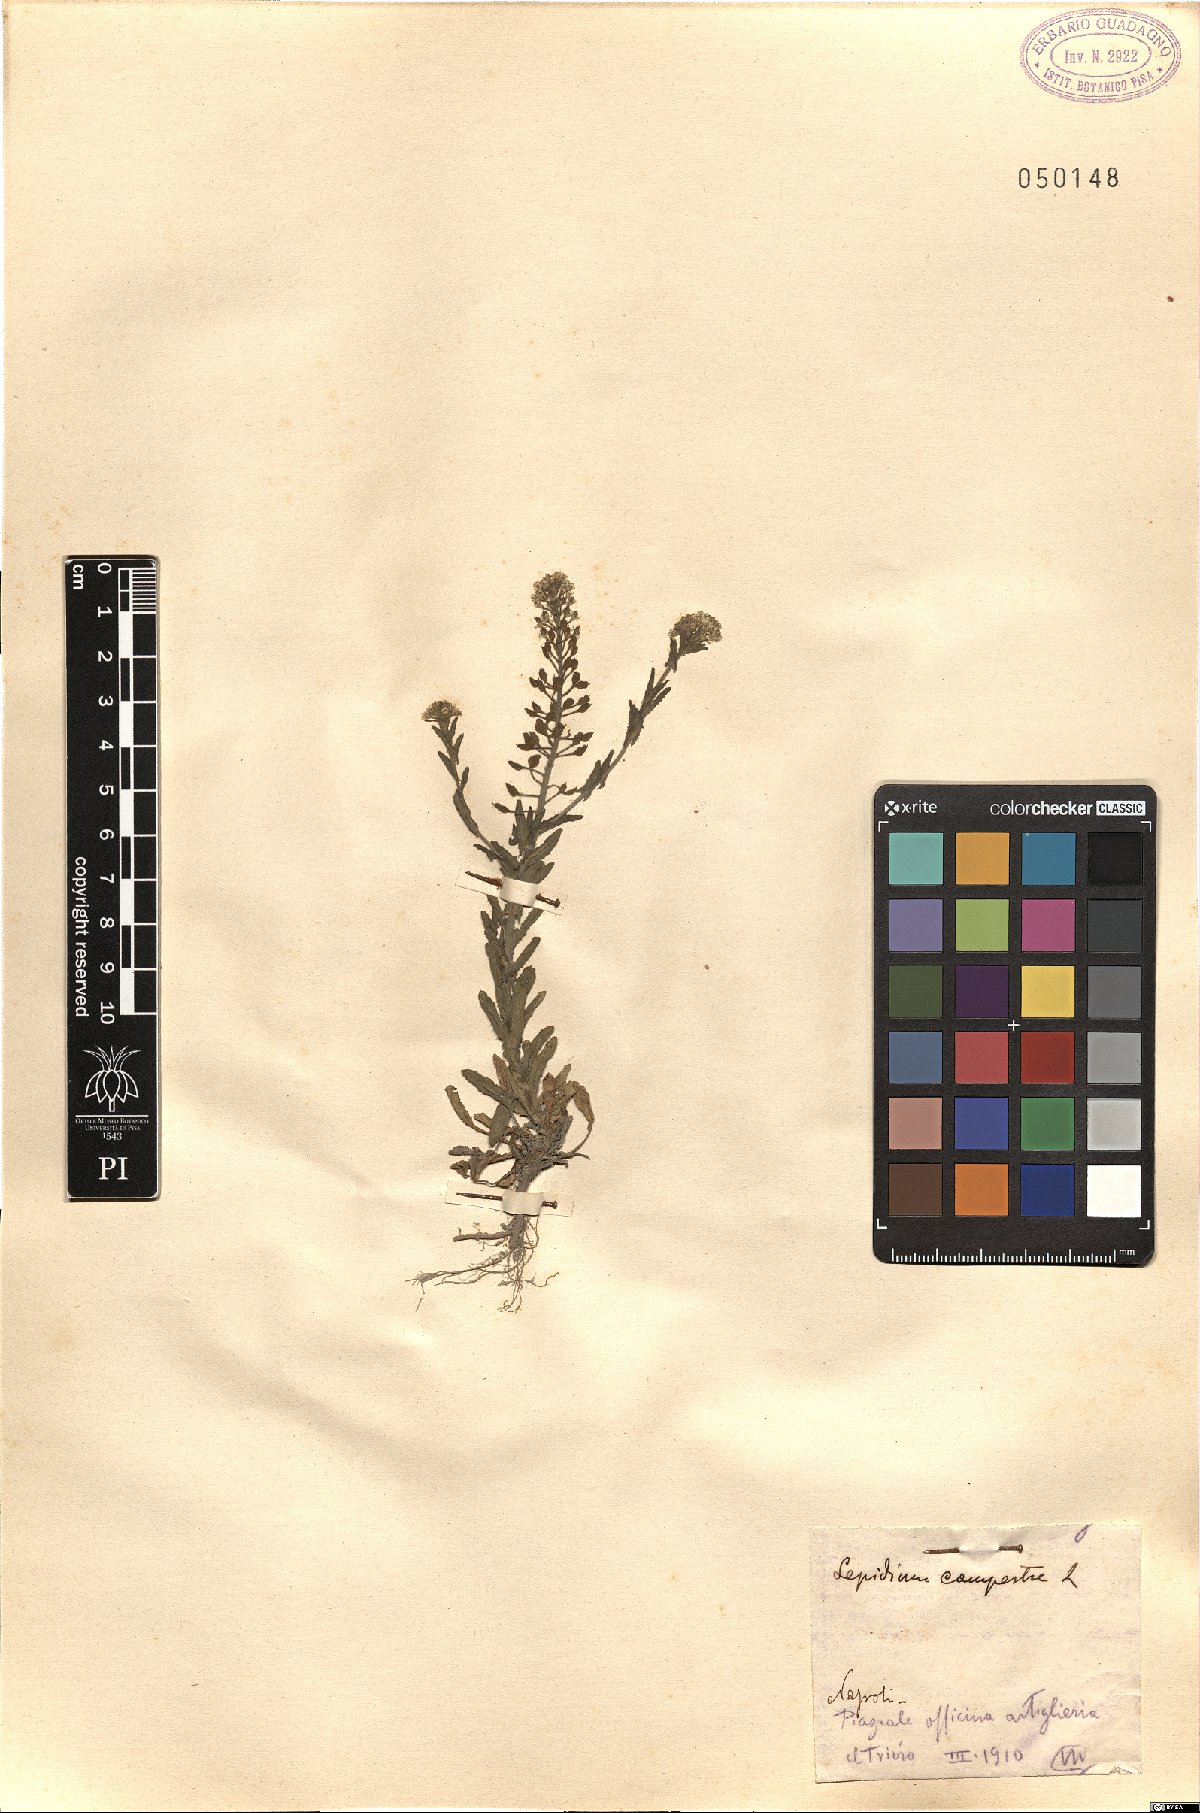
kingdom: Plantae
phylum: Tracheophyta
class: Magnoliopsida
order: Brassicales
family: Brassicaceae
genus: Lepidium
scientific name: Lepidium campestre
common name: Field pepperwort
